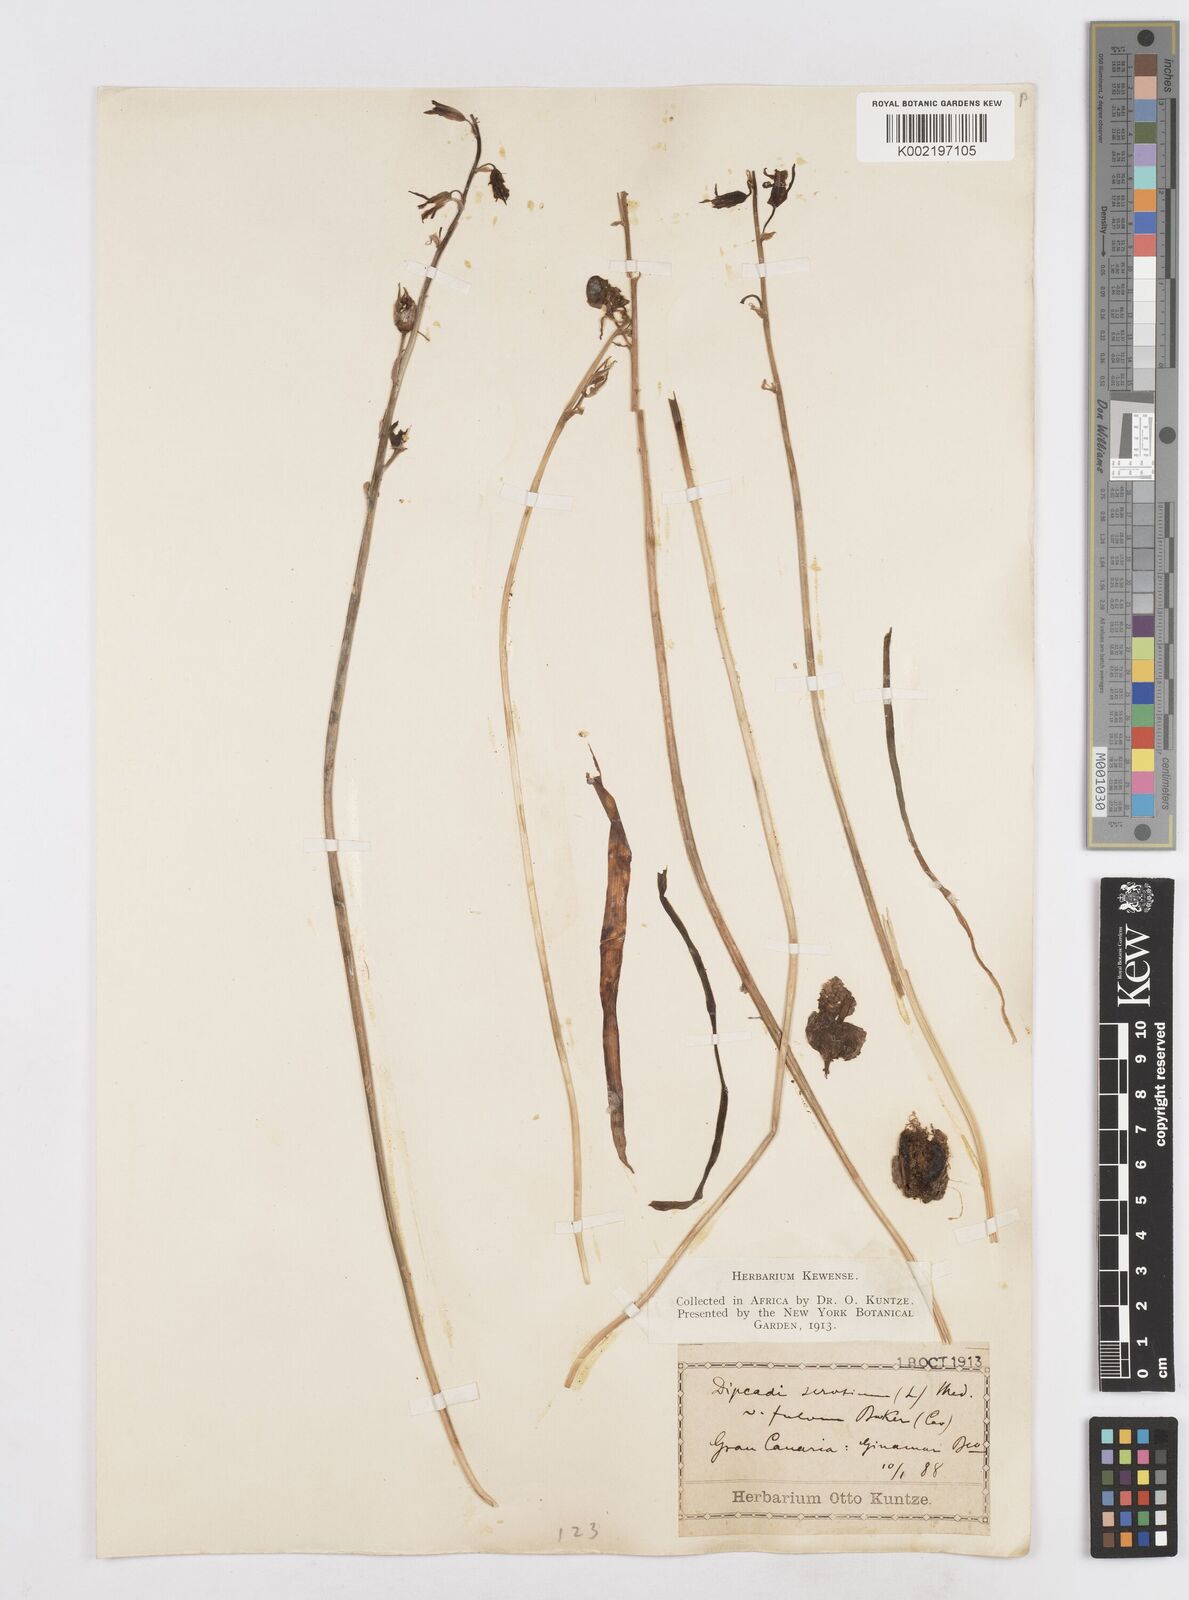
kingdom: Plantae
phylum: Tracheophyta
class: Liliopsida
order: Asparagales
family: Asparagaceae
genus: Dipcadi
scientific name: Dipcadi serotinum
